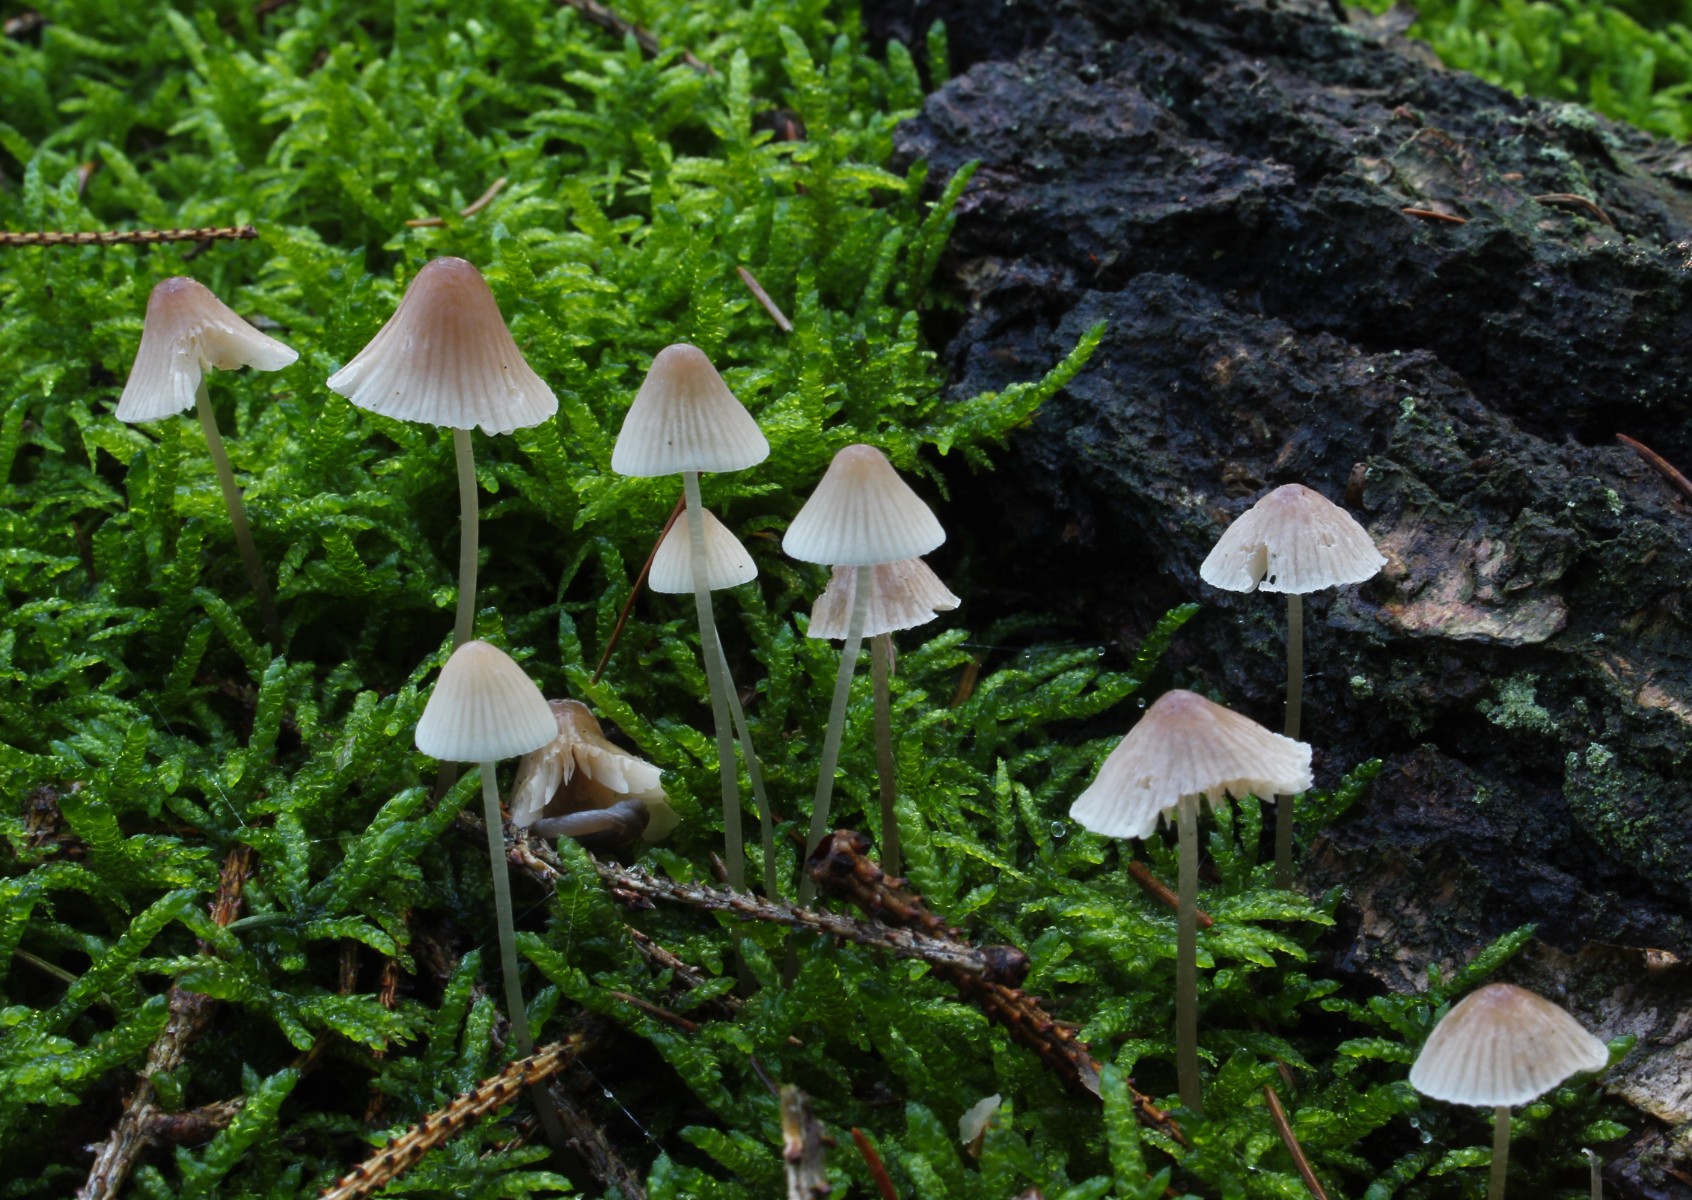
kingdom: Fungi
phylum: Basidiomycota
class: Agaricomycetes
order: Agaricales
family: Mycenaceae
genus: Mycena
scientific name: Mycena metata
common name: rødlig huesvamp
